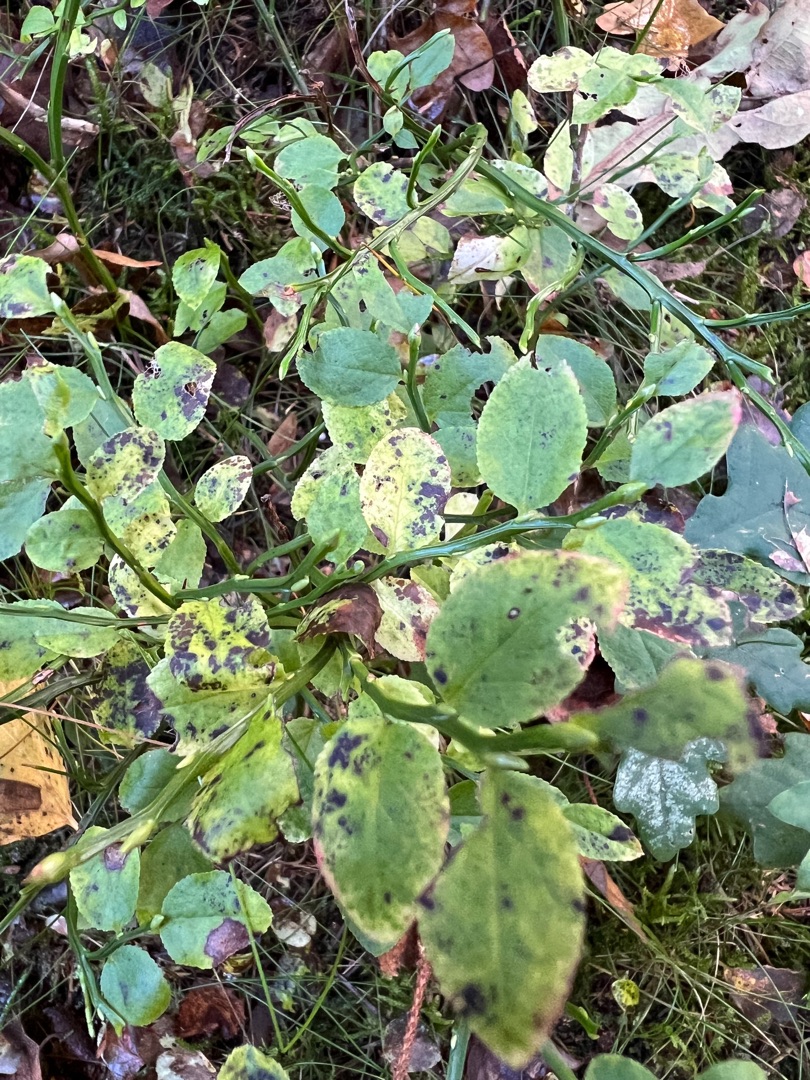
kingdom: Plantae
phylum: Tracheophyta
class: Magnoliopsida
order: Ericales
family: Ericaceae
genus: Vaccinium
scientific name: Vaccinium myrtillus
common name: Blåbær
